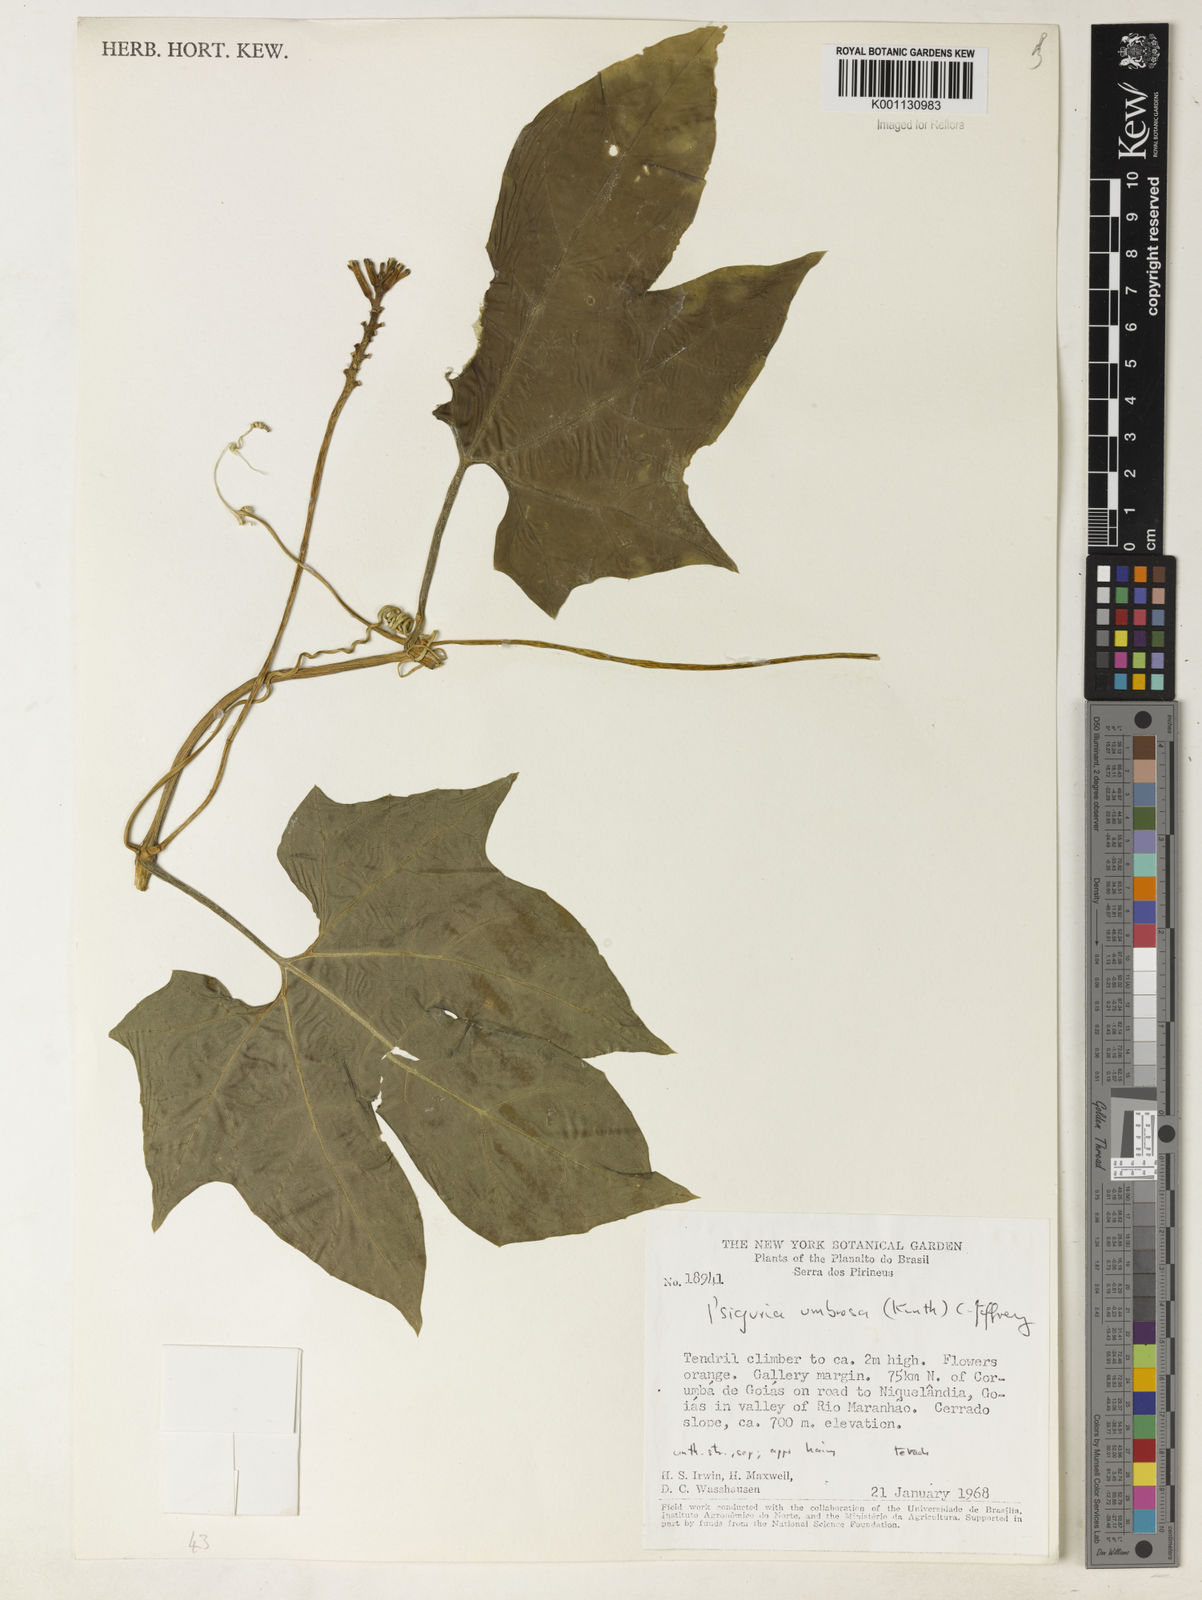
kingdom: Plantae
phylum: Tracheophyta
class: Magnoliopsida
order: Cucurbitales
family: Cucurbitaceae
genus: Psiguria
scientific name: Psiguria umbrosa
